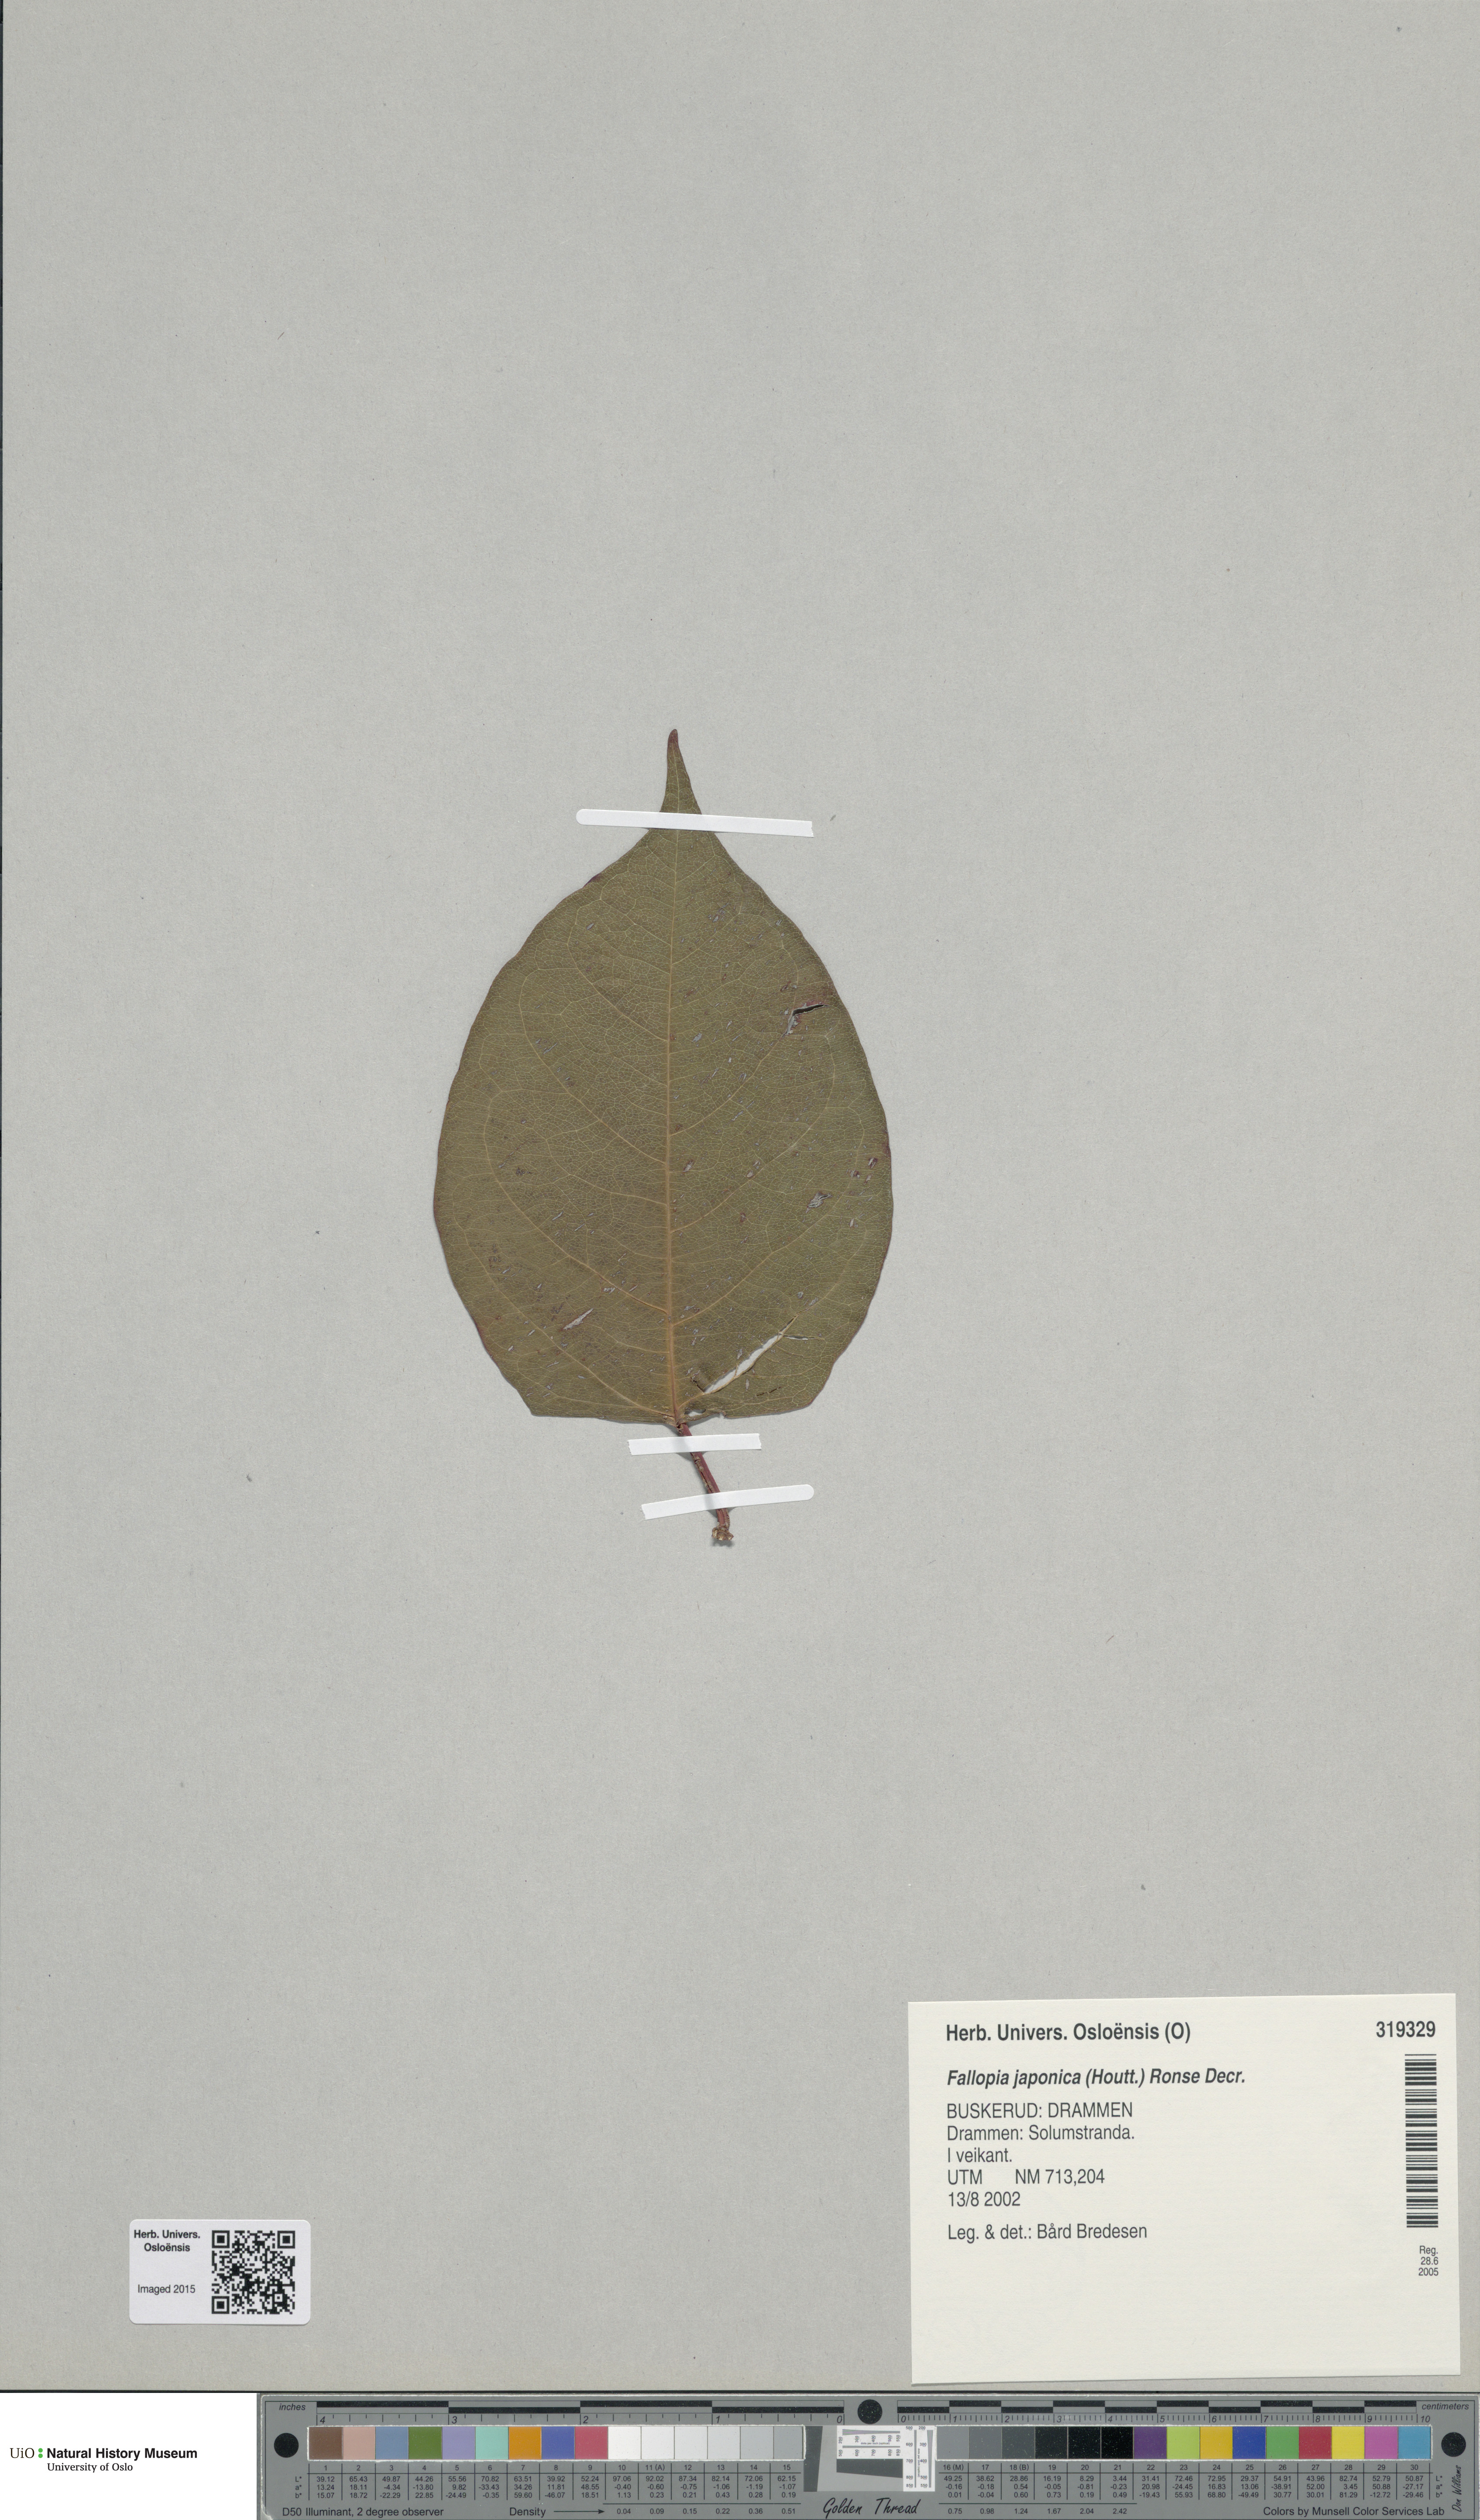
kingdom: Plantae
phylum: Tracheophyta
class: Magnoliopsida
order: Caryophyllales
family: Polygonaceae
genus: Reynoutria
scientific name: Reynoutria japonica
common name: Japanese knotweed
